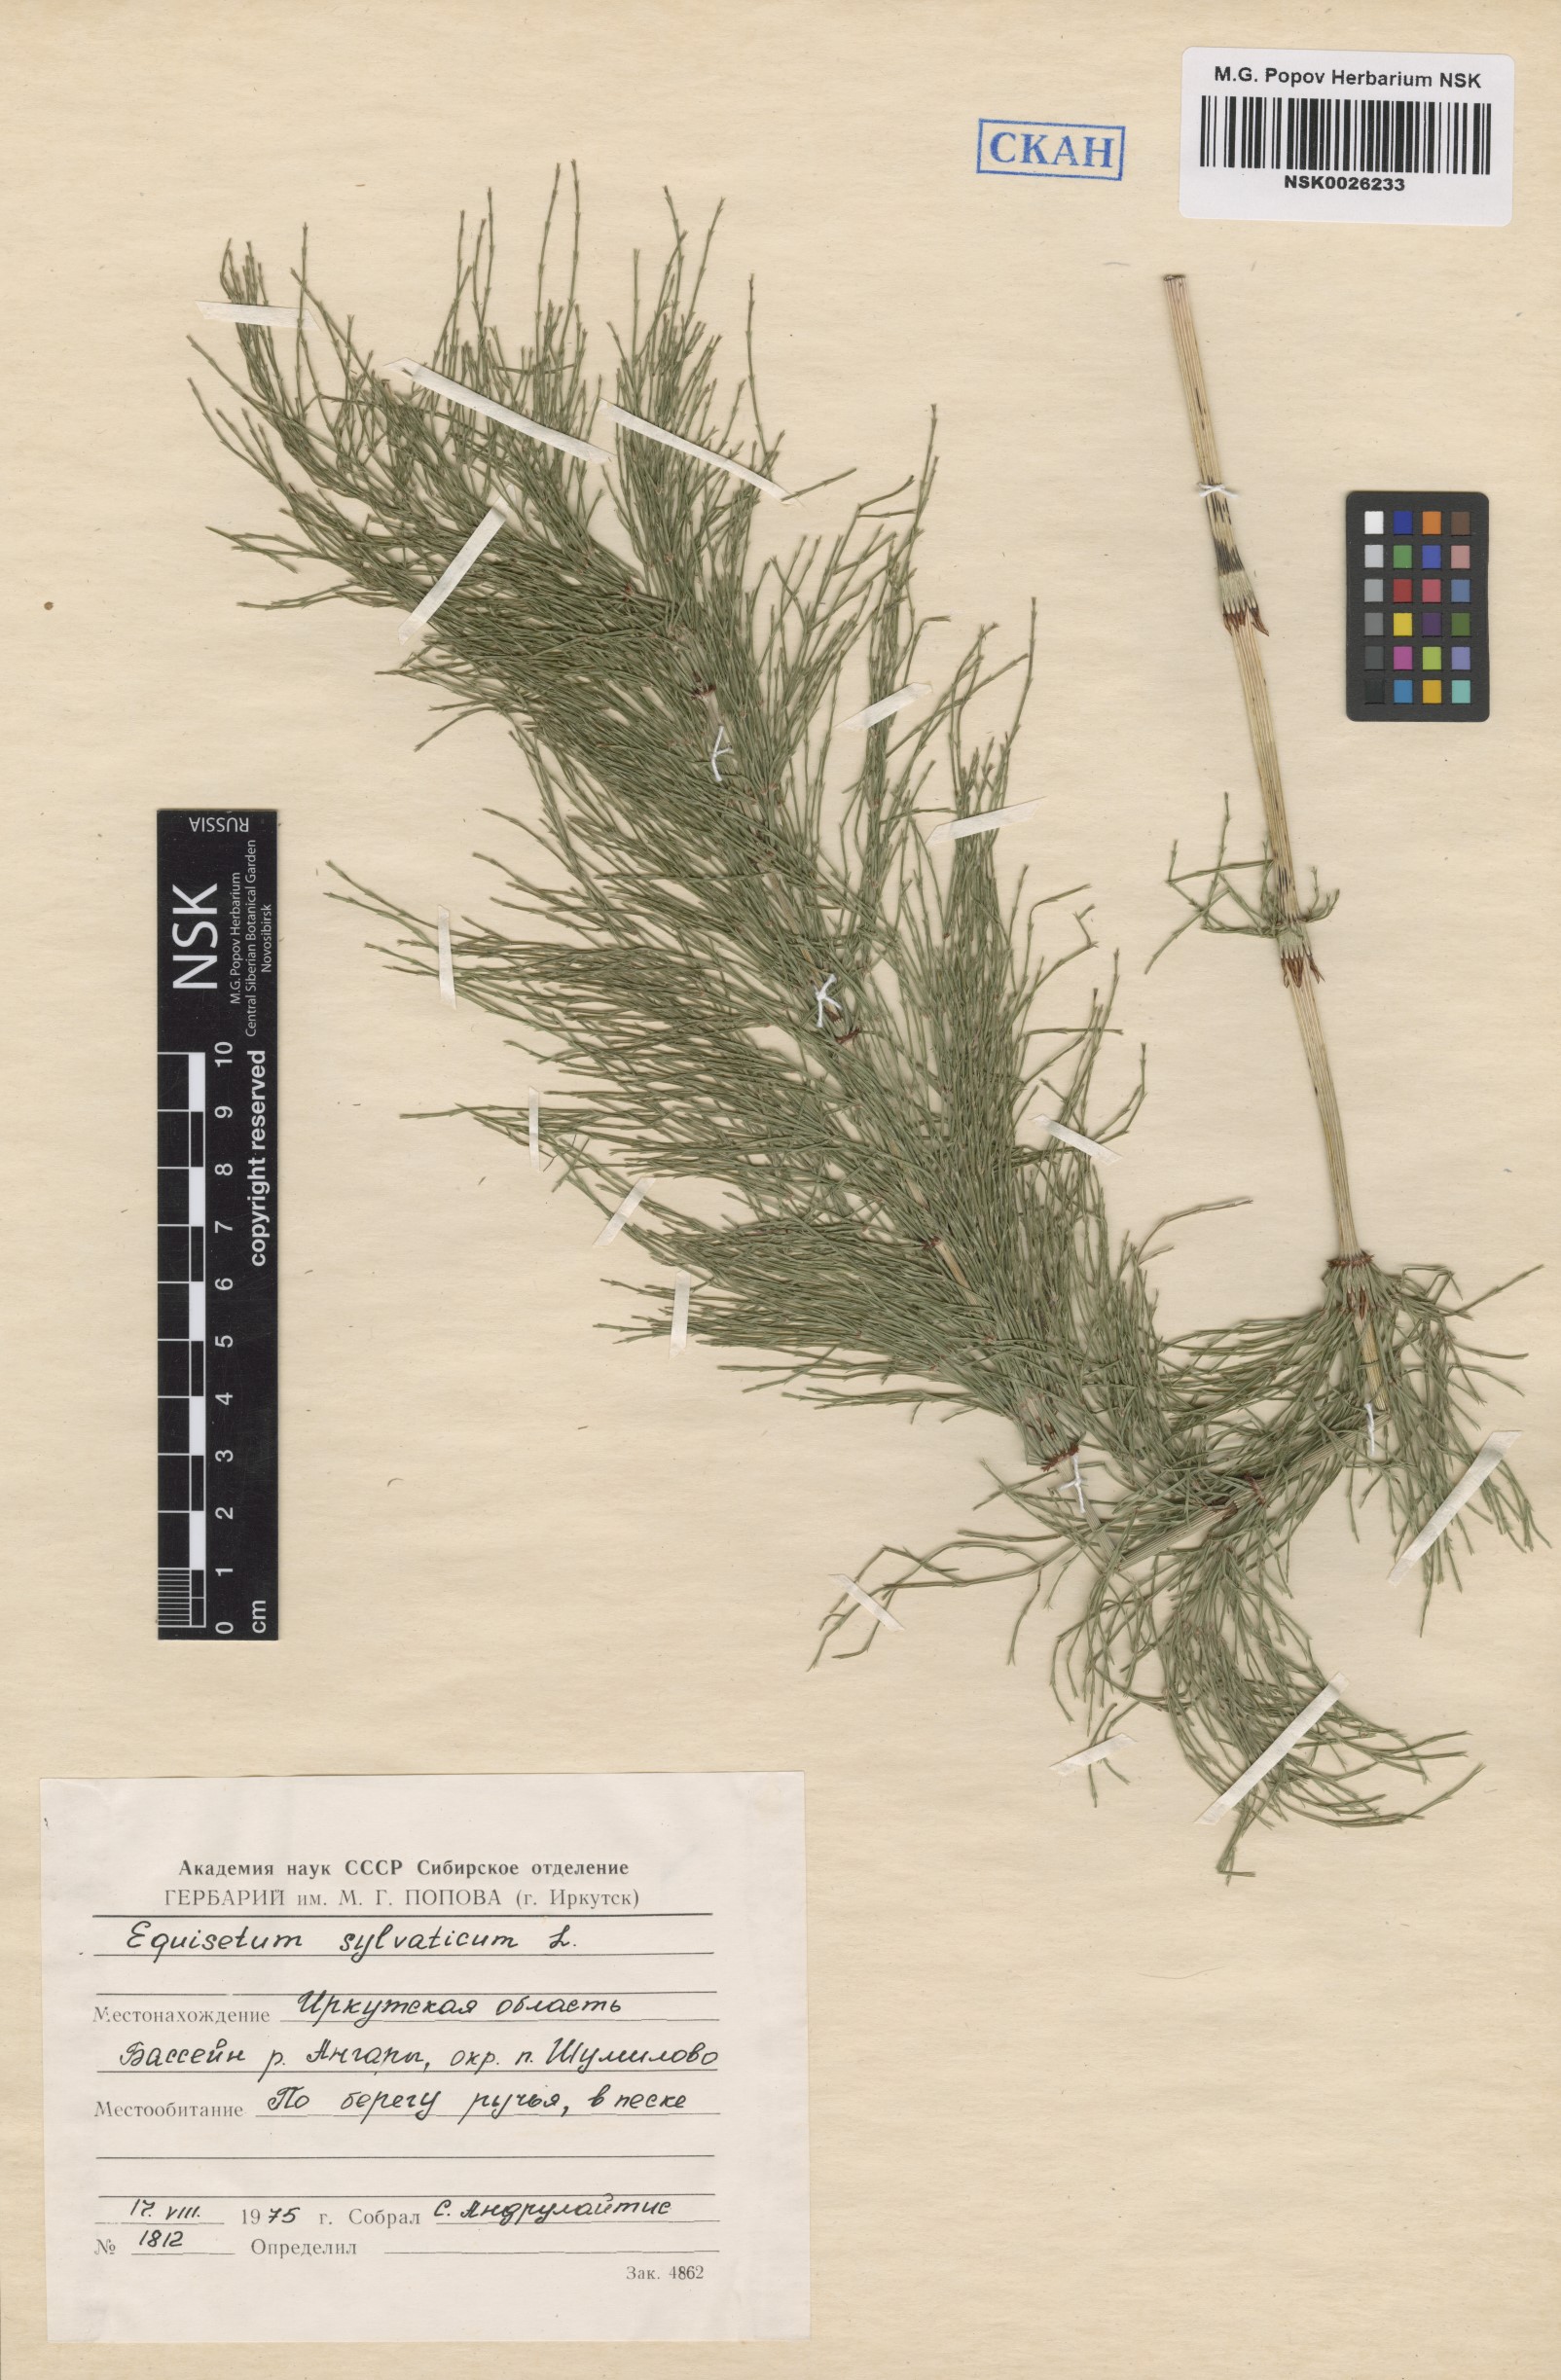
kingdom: Plantae
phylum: Tracheophyta
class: Polypodiopsida
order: Equisetales
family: Equisetaceae
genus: Equisetum
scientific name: Equisetum sylvaticum
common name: Wood horsetail
